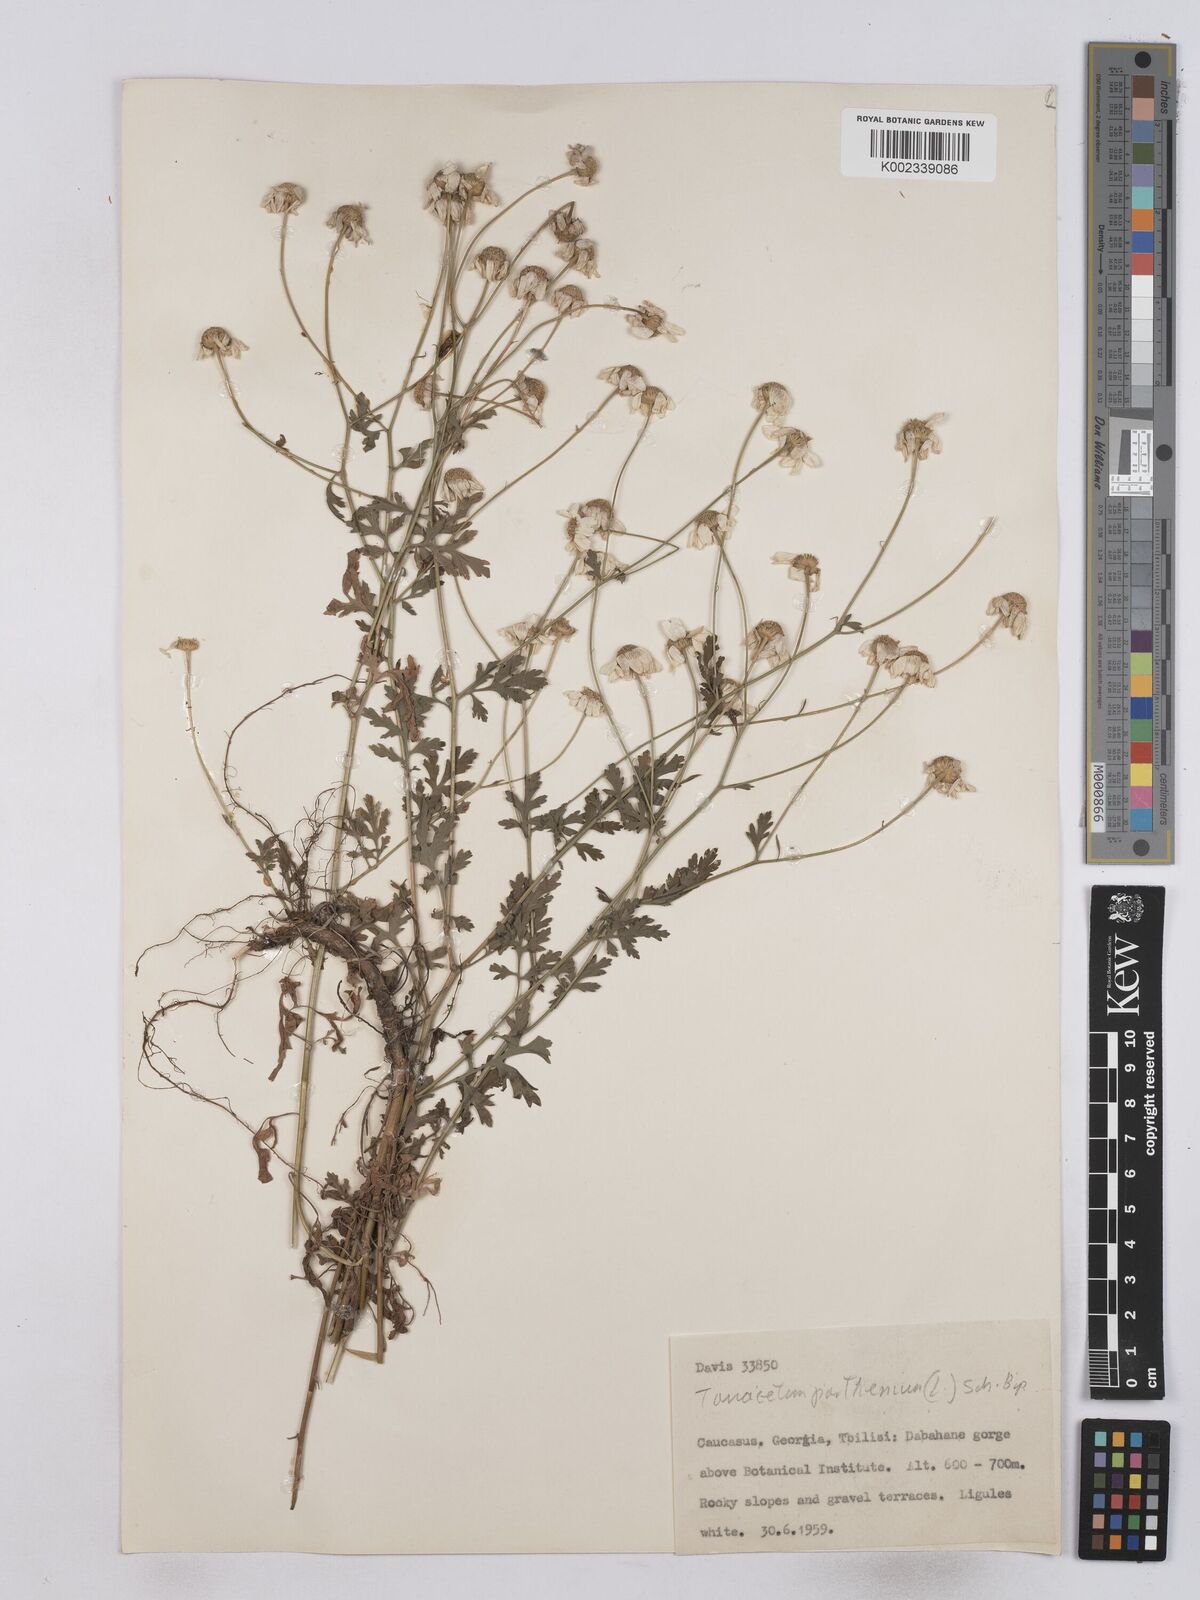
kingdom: Plantae
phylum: Tracheophyta
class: Magnoliopsida
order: Asterales
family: Asteraceae
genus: Tanacetum
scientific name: Tanacetum parthenium
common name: Feverfew
